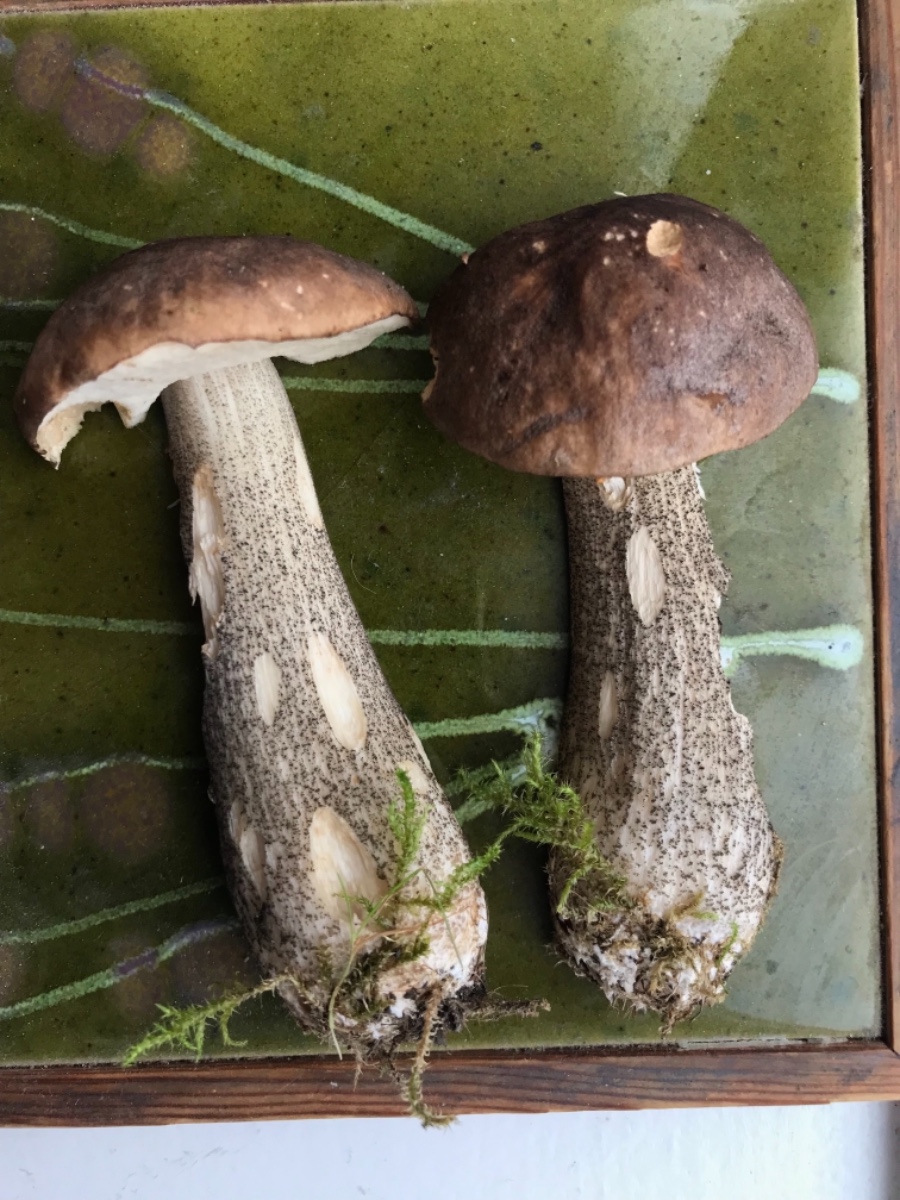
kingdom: Fungi
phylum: Basidiomycota
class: Agaricomycetes
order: Boletales
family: Boletaceae
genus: Leccinum
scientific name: Leccinum melaneum
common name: mørk skælrørhat
